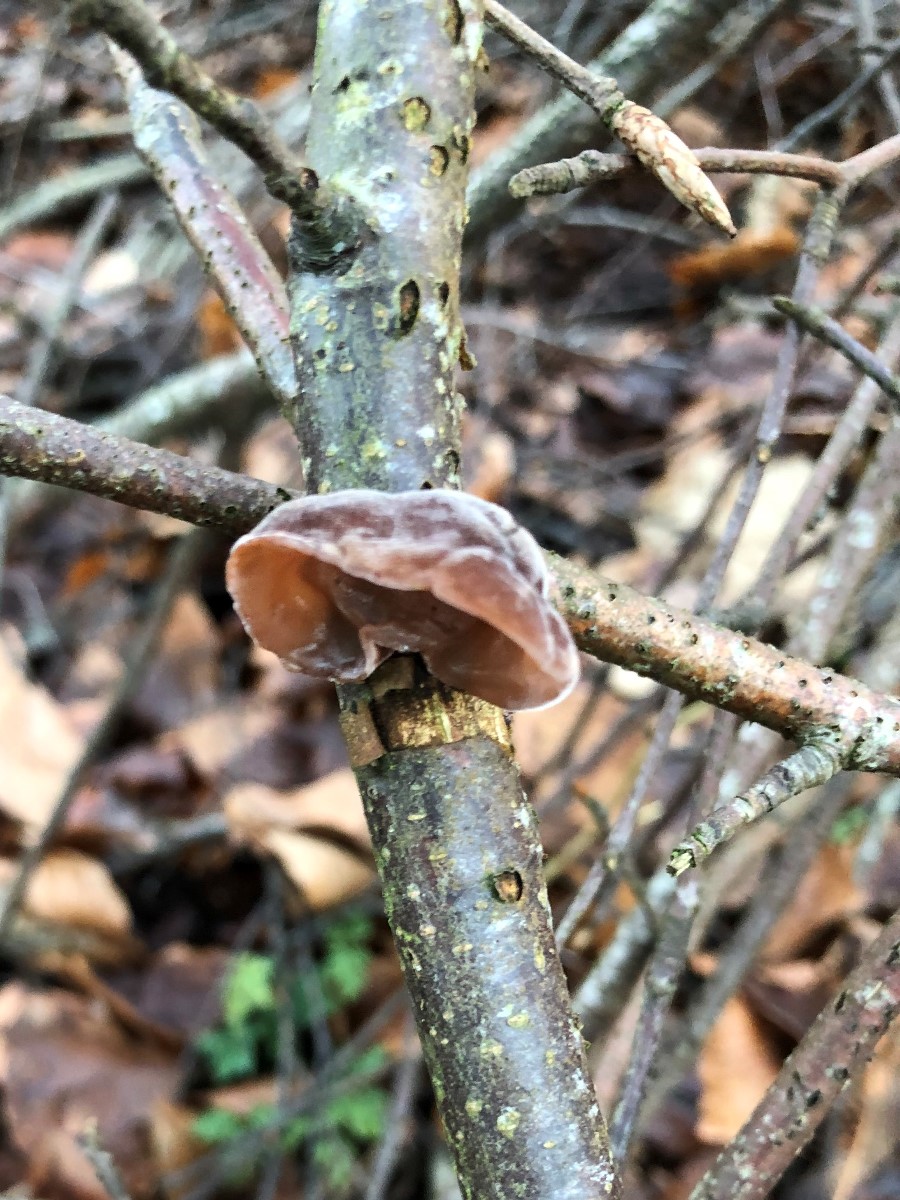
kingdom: Fungi
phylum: Basidiomycota
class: Agaricomycetes
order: Auriculariales
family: Auriculariaceae
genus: Auricularia
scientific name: Auricularia auricula-judae
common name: almindelig judasøre
